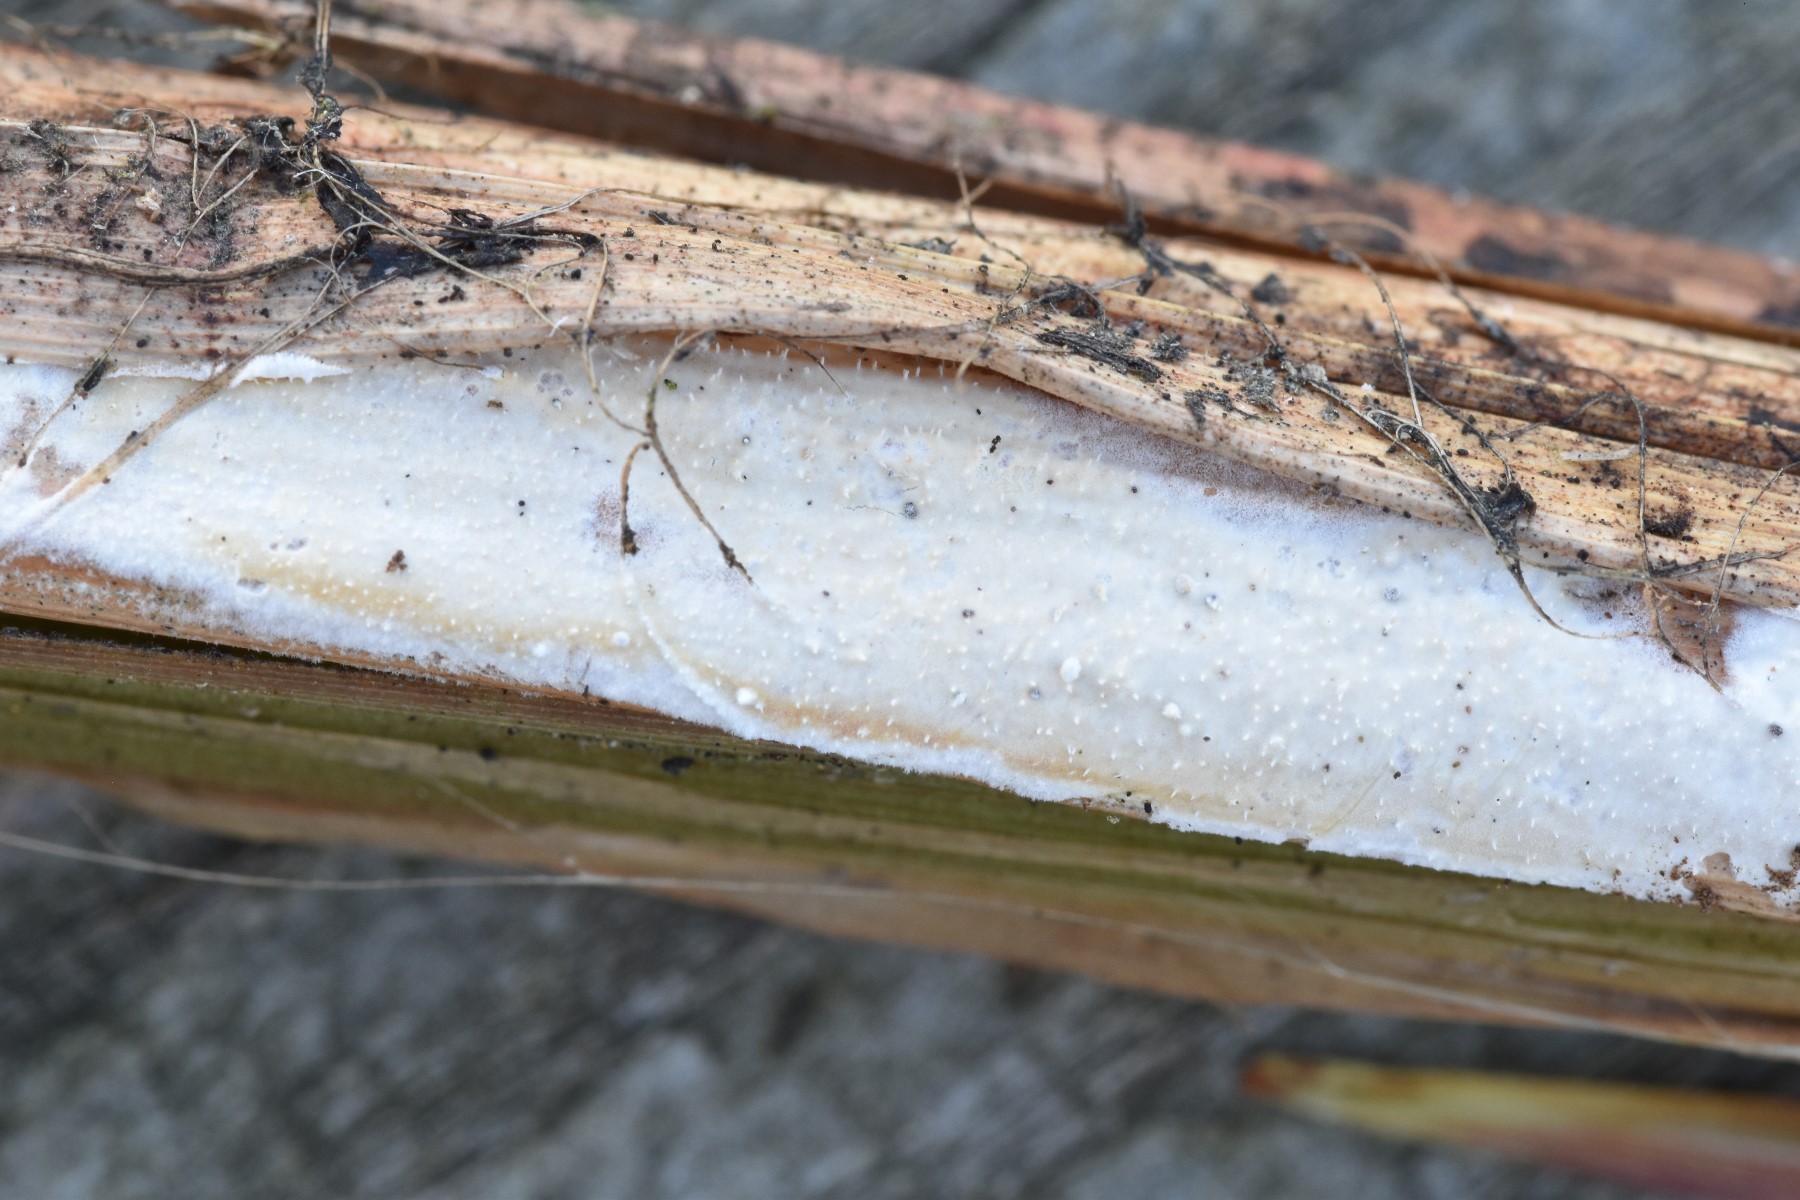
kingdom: Fungi
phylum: Basidiomycota
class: Agaricomycetes
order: Polyporales
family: Polyporaceae
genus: Epithele
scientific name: Epithele typhae
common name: starpig
